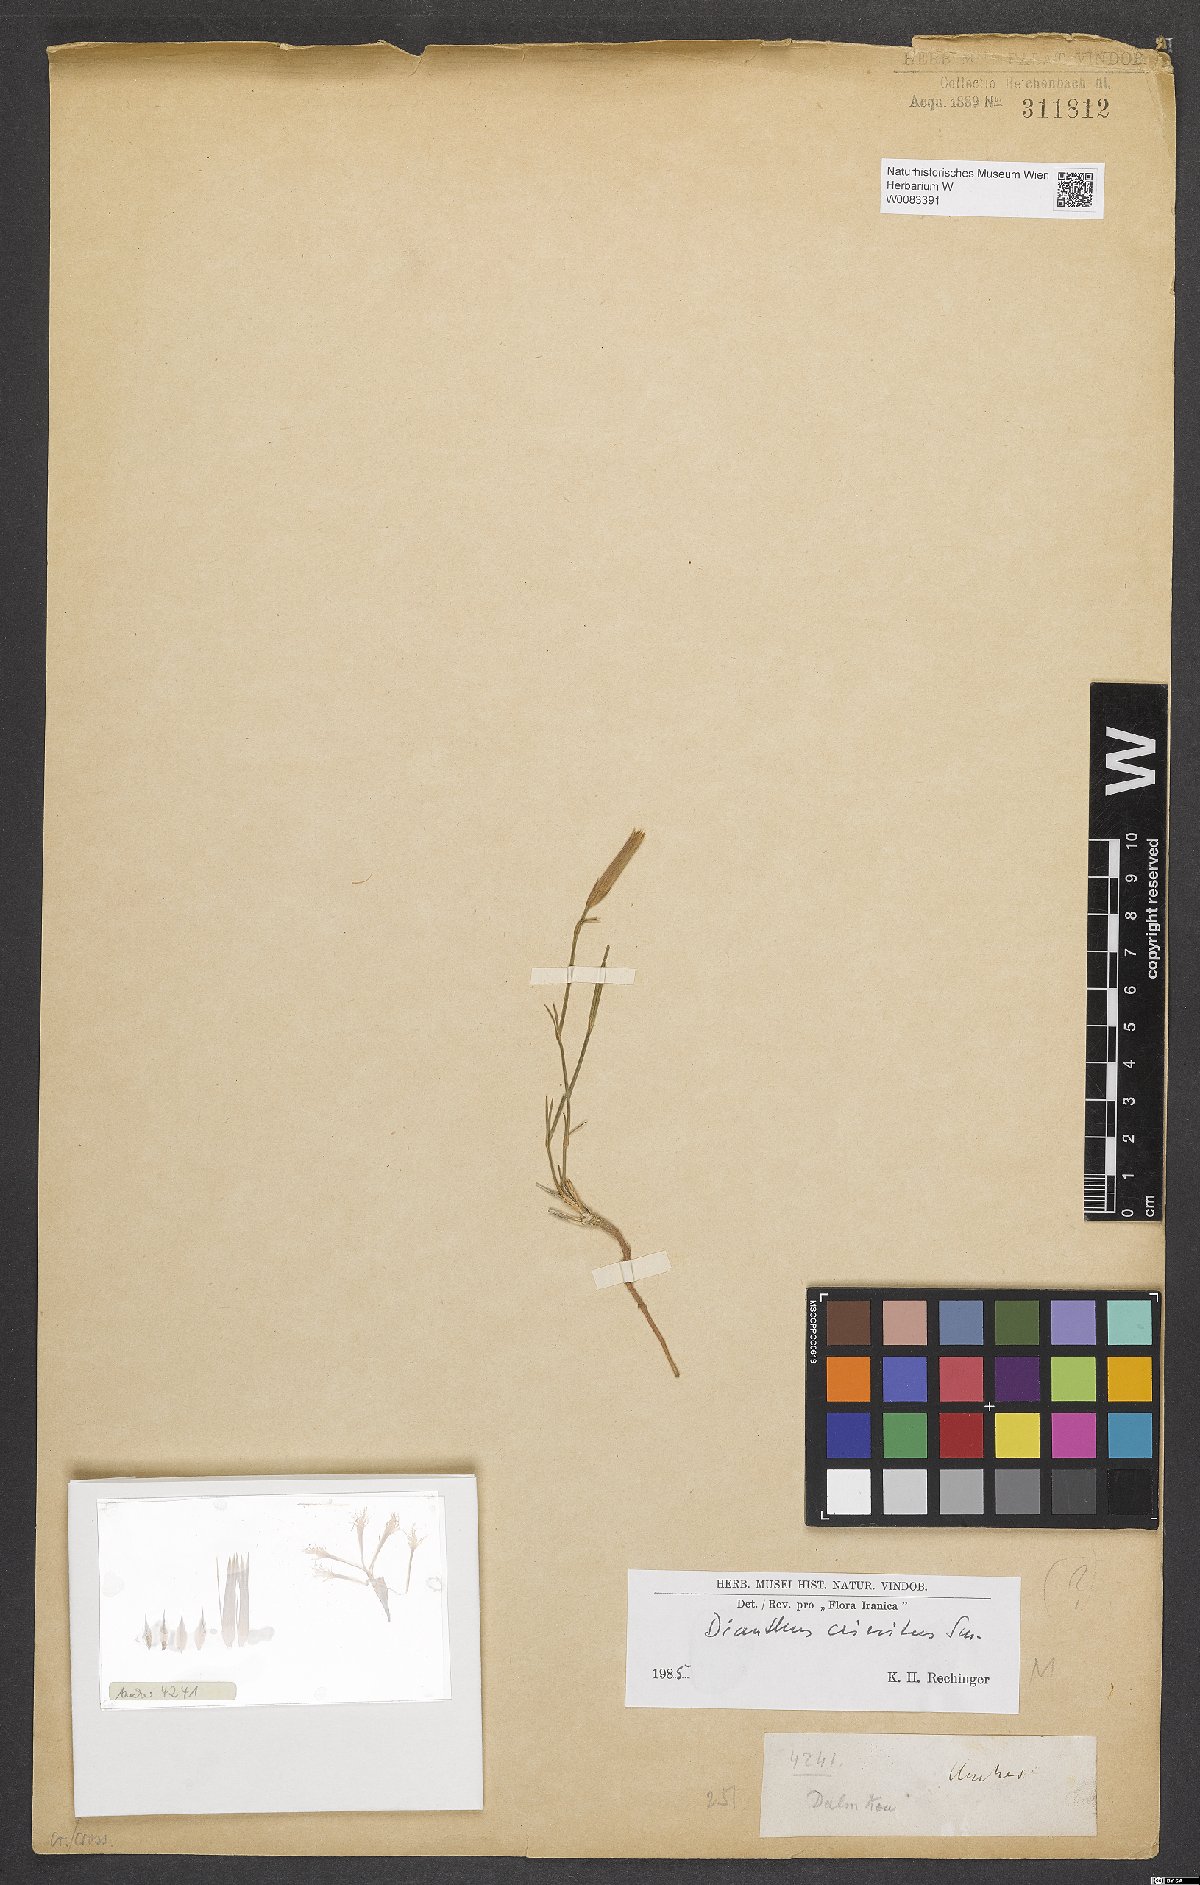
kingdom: Plantae
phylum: Tracheophyta
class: Magnoliopsida
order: Caryophyllales
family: Caryophyllaceae
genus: Dianthus
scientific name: Dianthus crinitus
